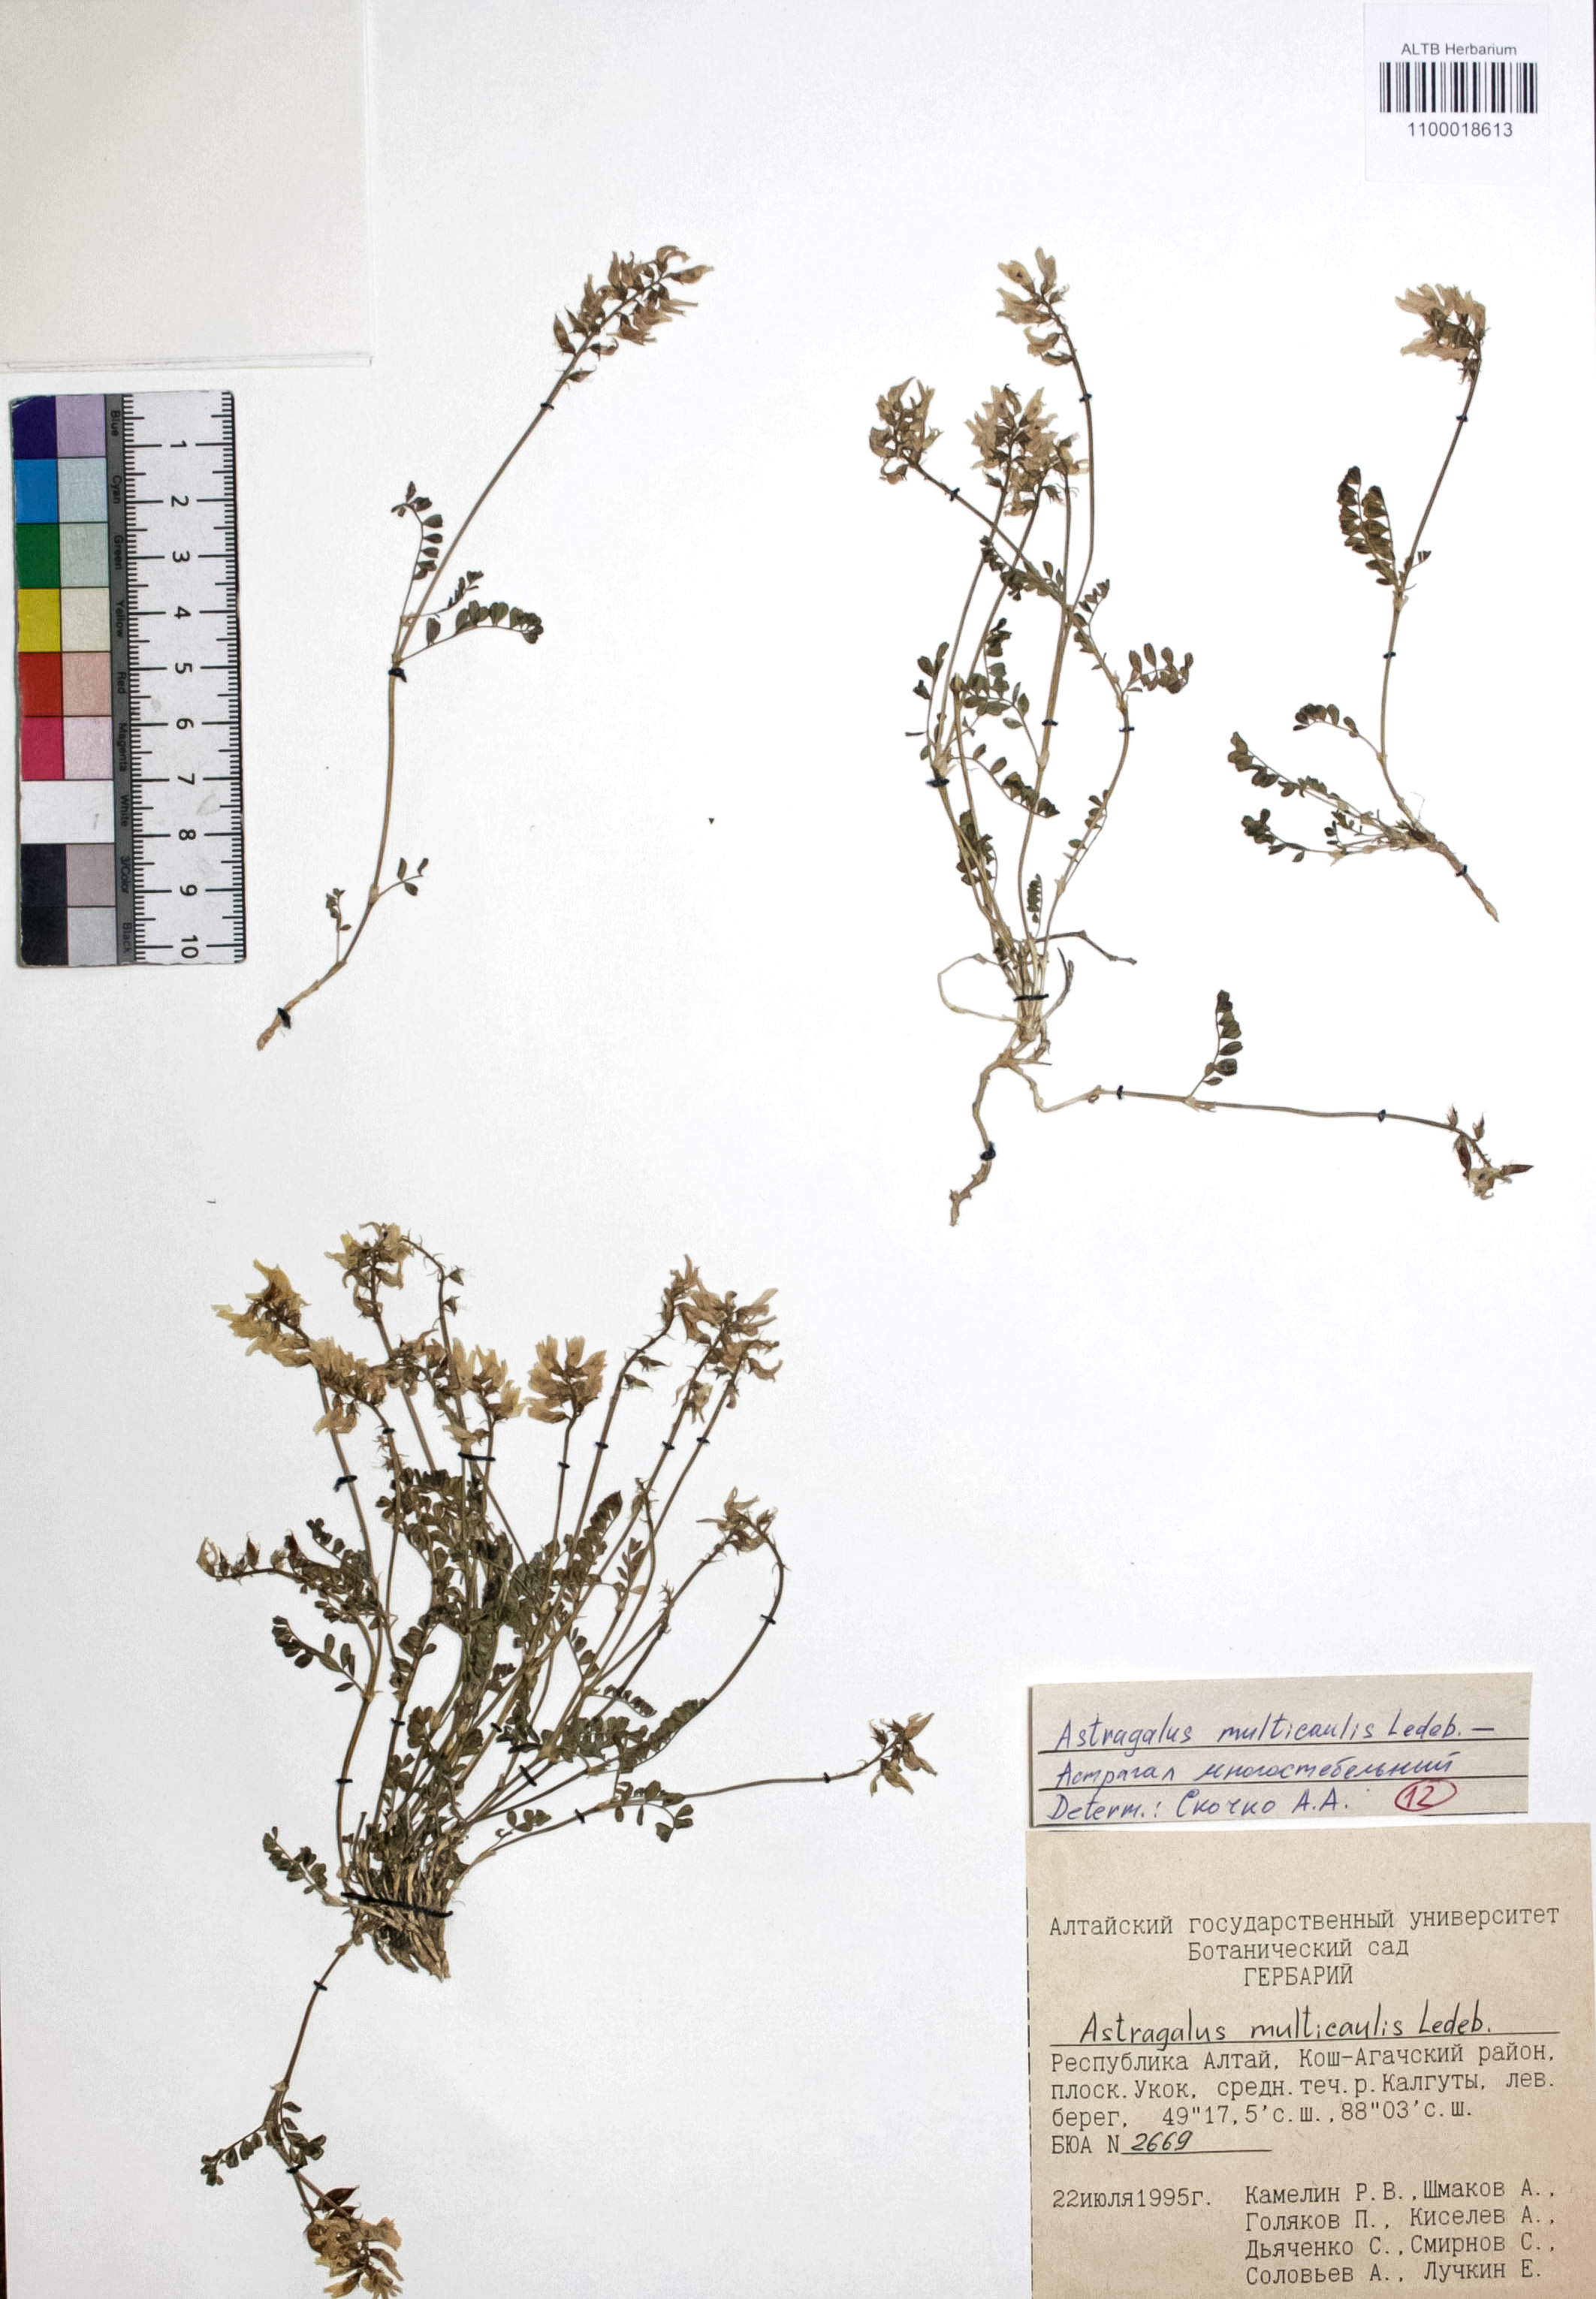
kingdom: Plantae
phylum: Tracheophyta
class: Magnoliopsida
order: Fabales
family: Fabaceae
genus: Astragalus
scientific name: Astragalus leptostachys
